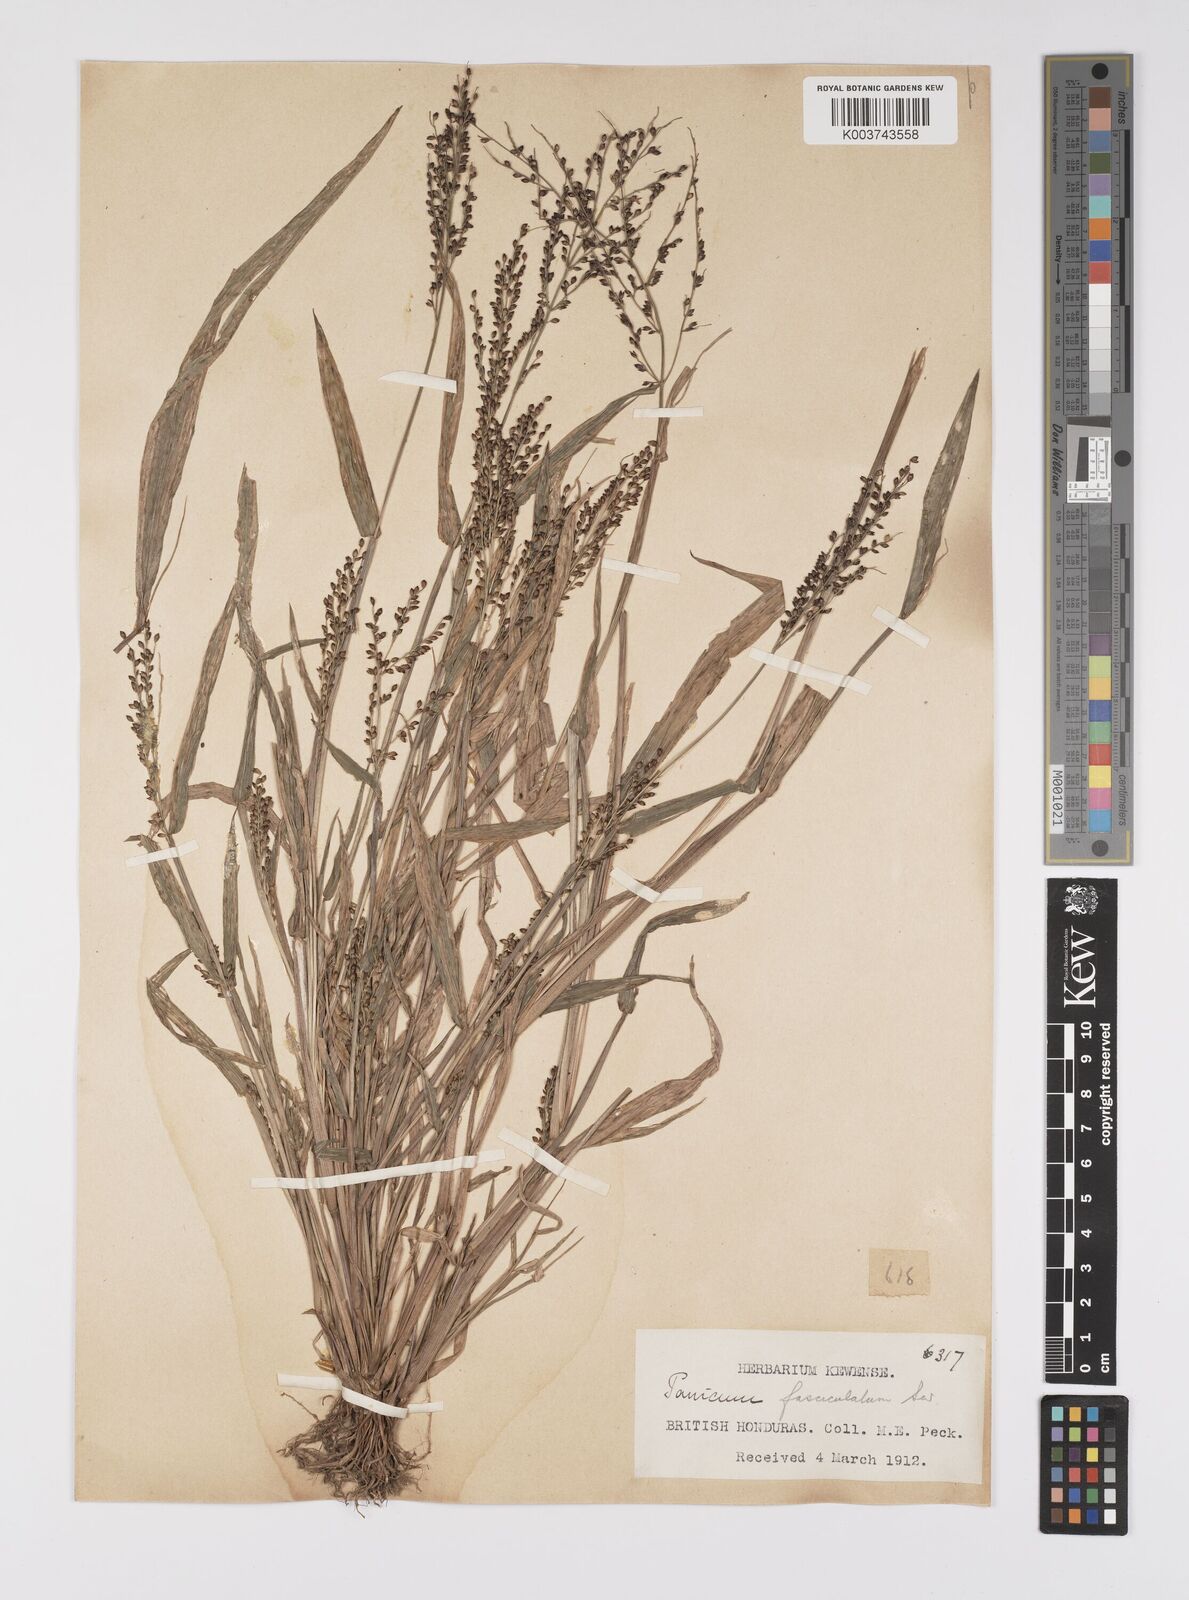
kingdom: Plantae
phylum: Tracheophyta
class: Liliopsida
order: Poales
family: Poaceae
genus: Urochloa
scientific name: Urochloa fusca
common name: Browntop signal grass
